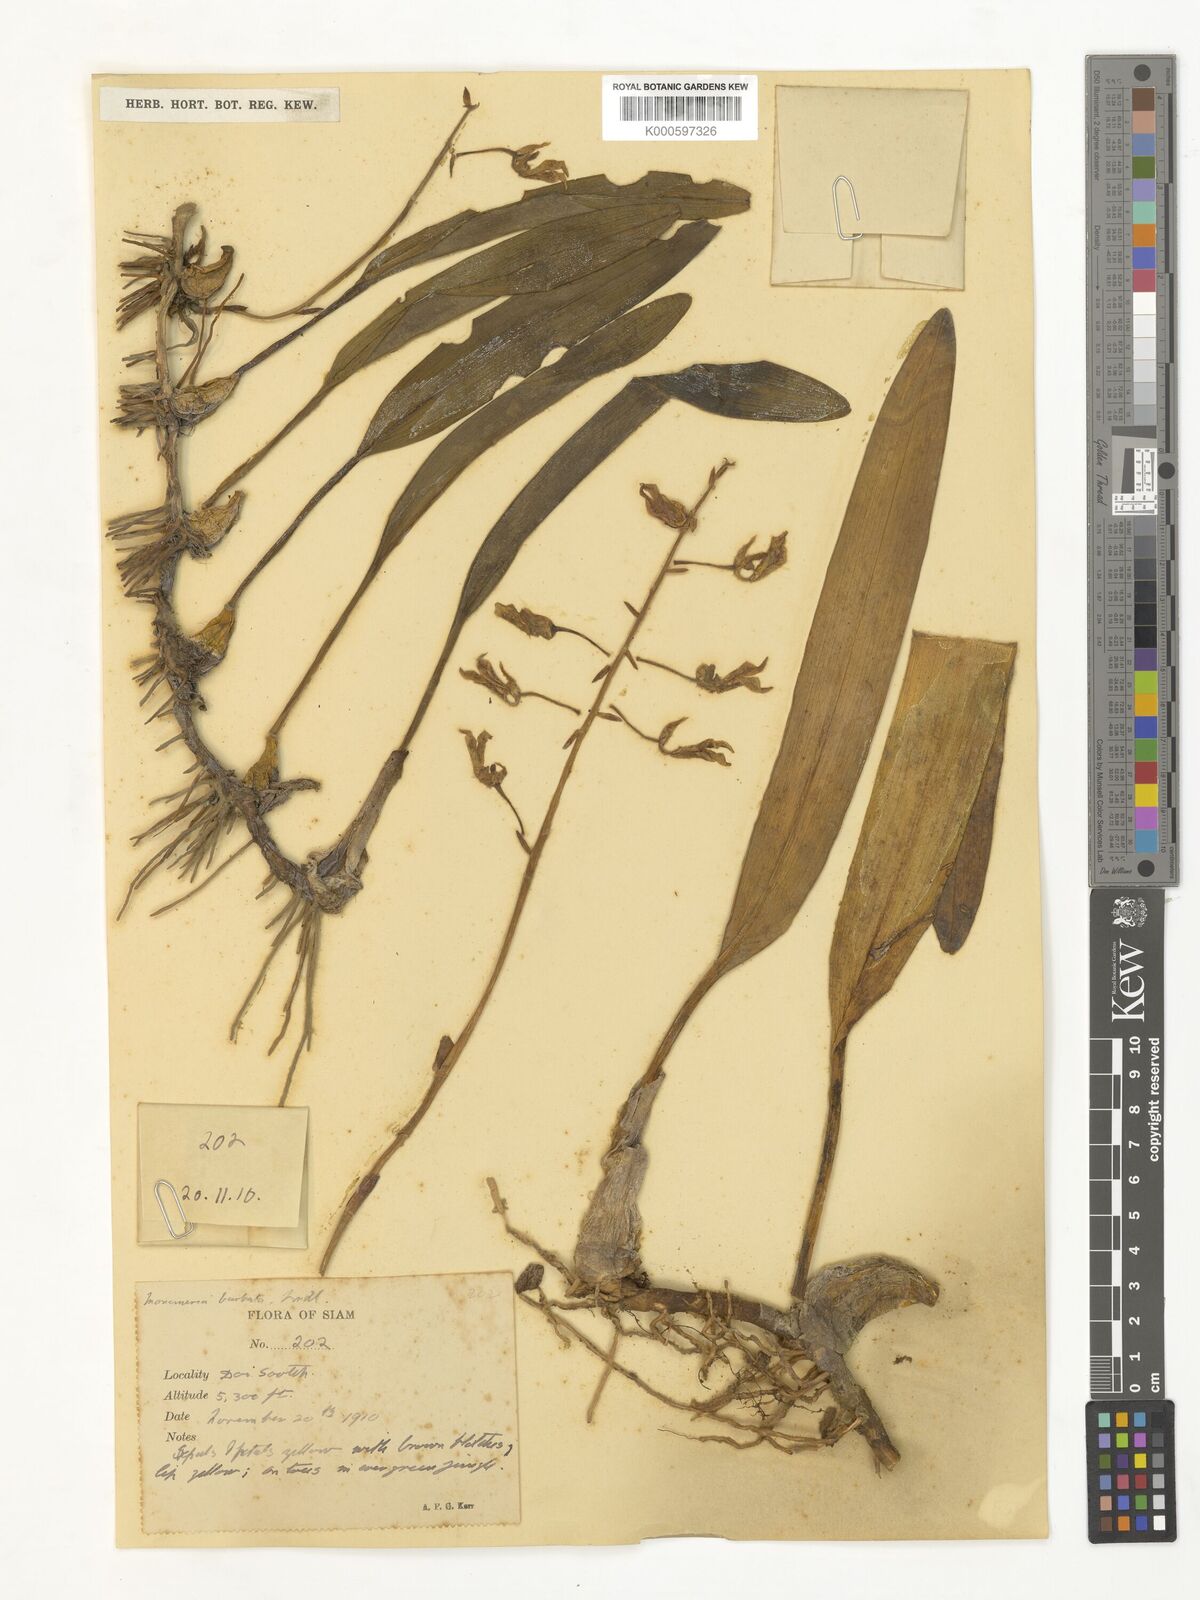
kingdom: Plantae
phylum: Tracheophyta
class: Liliopsida
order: Asparagales
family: Orchidaceae
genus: Bulbophyllum
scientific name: Bulbophyllum crabro
